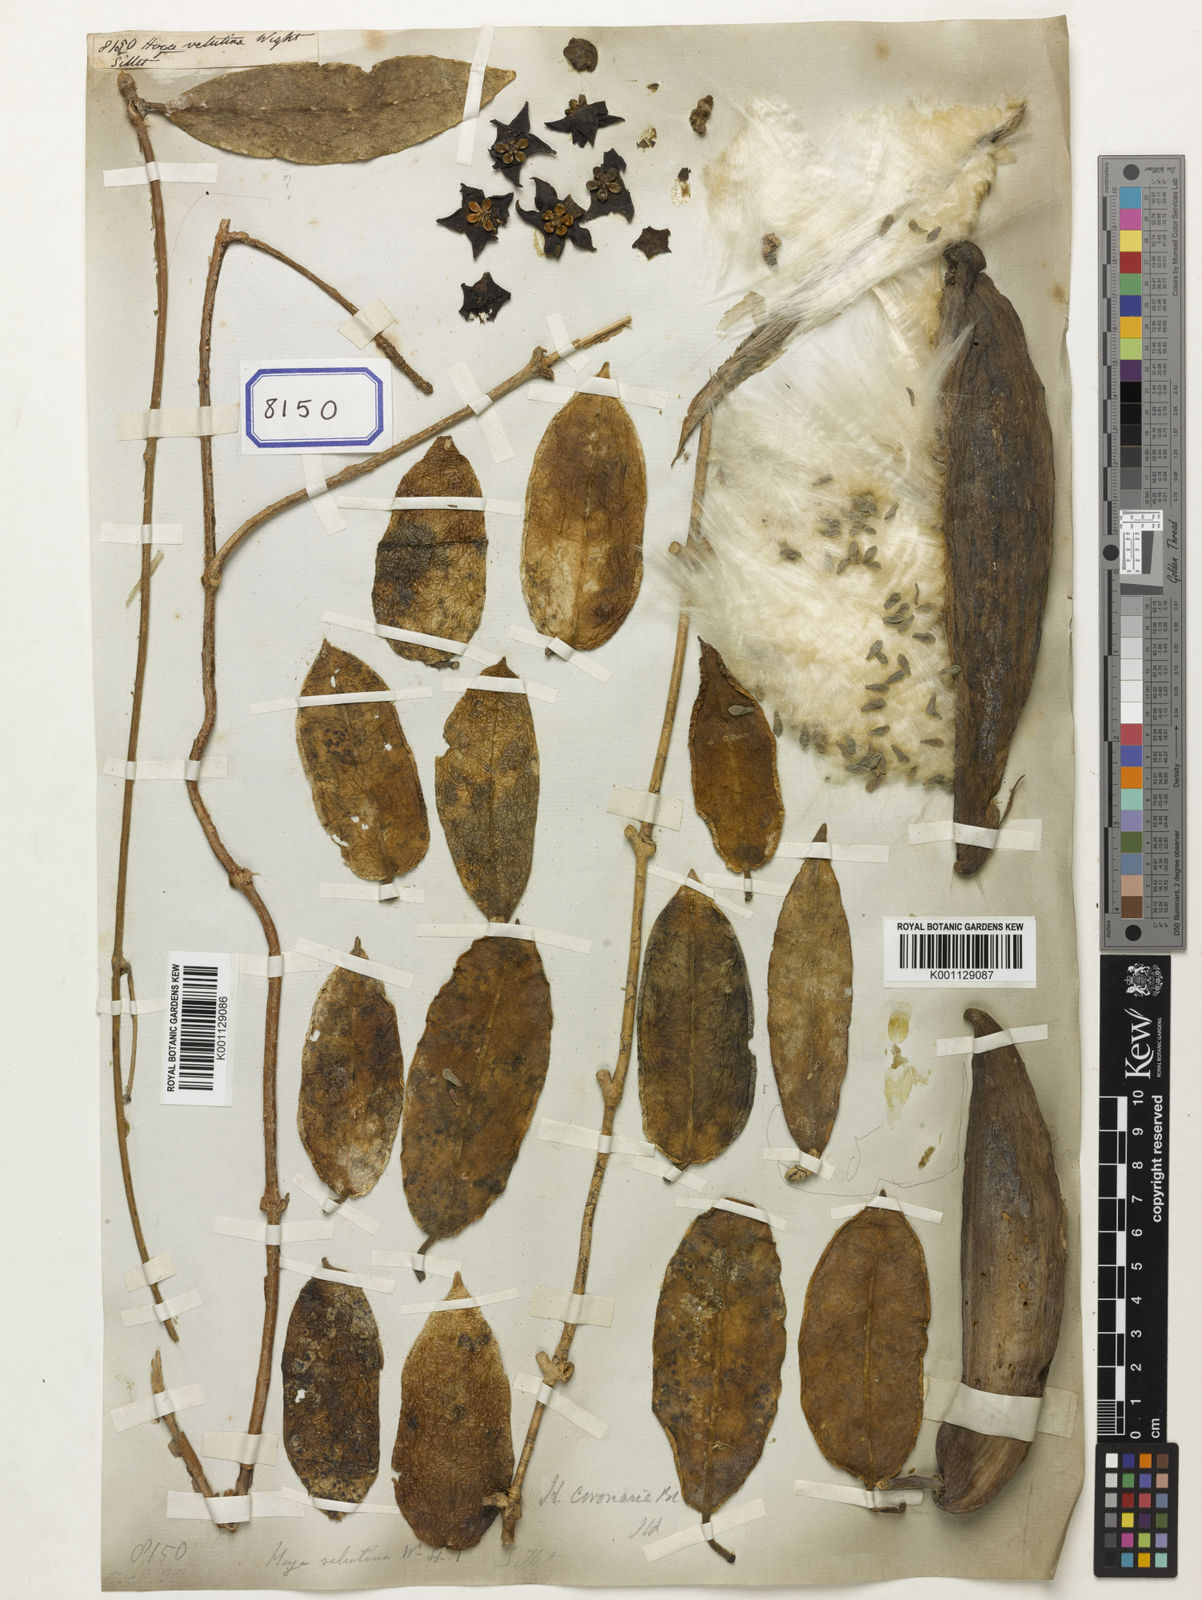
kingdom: Plantae
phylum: Tracheophyta
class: Magnoliopsida
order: Gentianales
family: Apocynaceae
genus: Eriostemma
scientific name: Eriostemma coronaria
